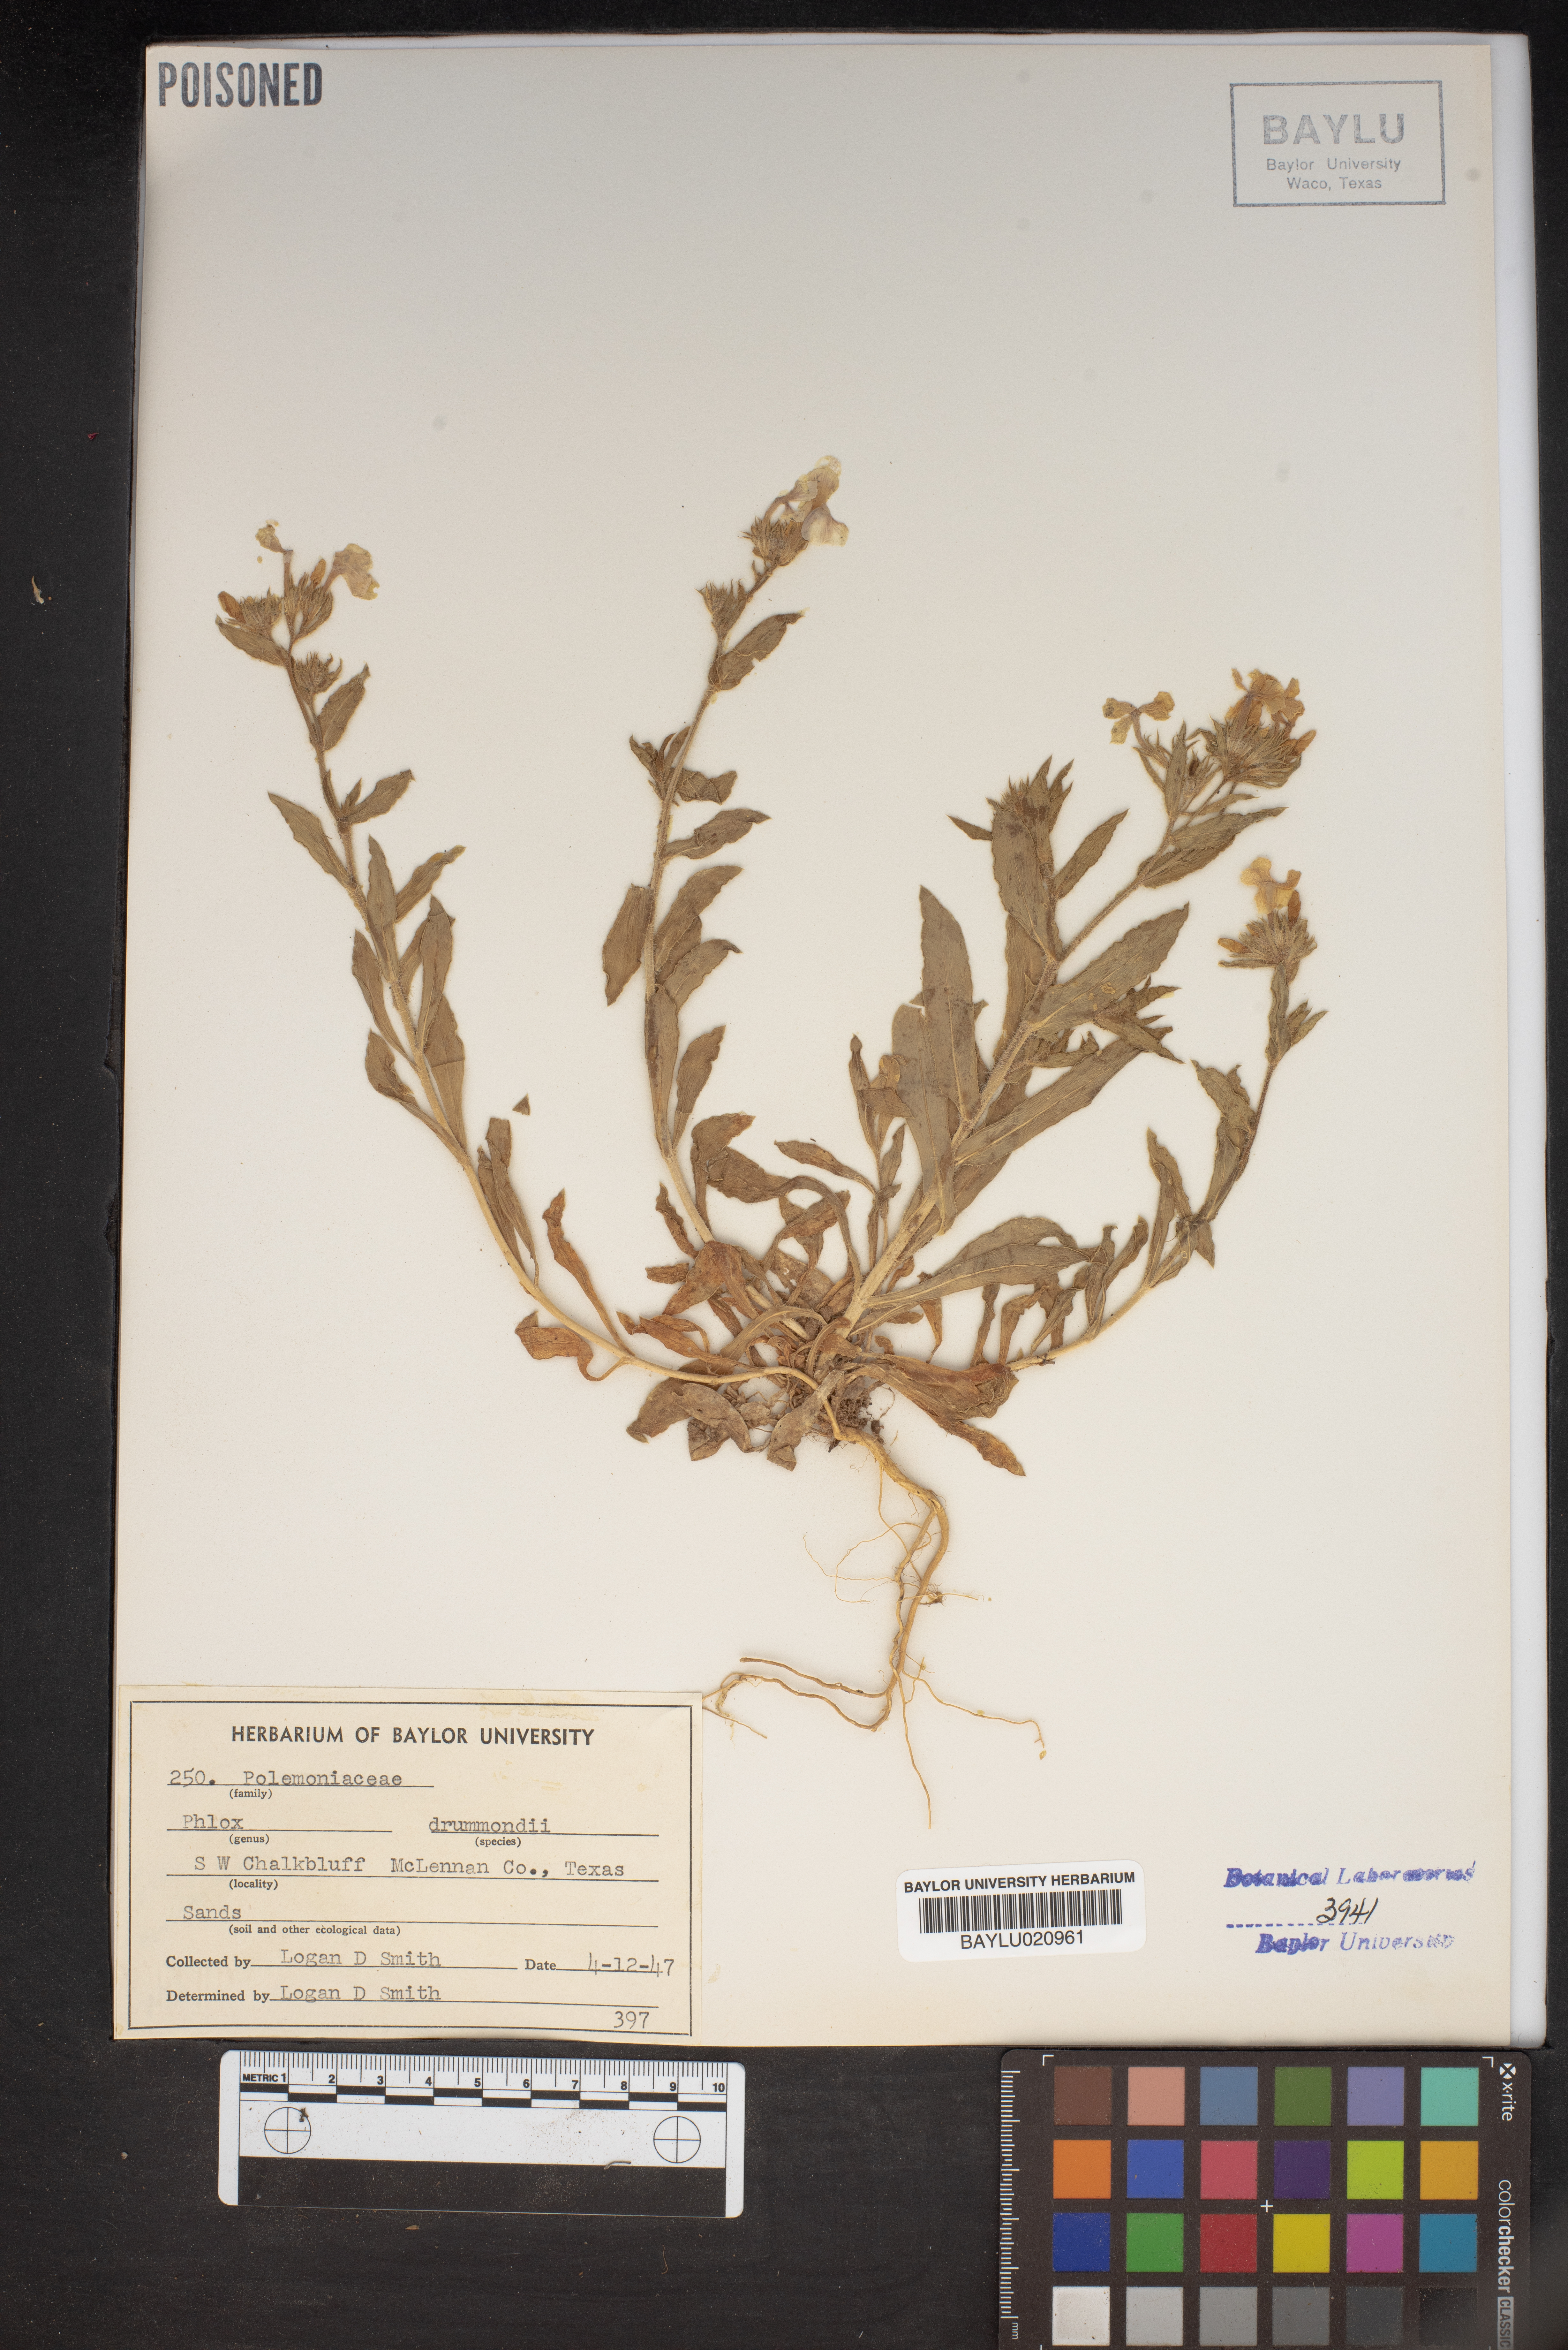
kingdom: Plantae
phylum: Tracheophyta
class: Magnoliopsida
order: Ericales
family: Polemoniaceae
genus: Phlox
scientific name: Phlox drummondii
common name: Drummond's phlox
